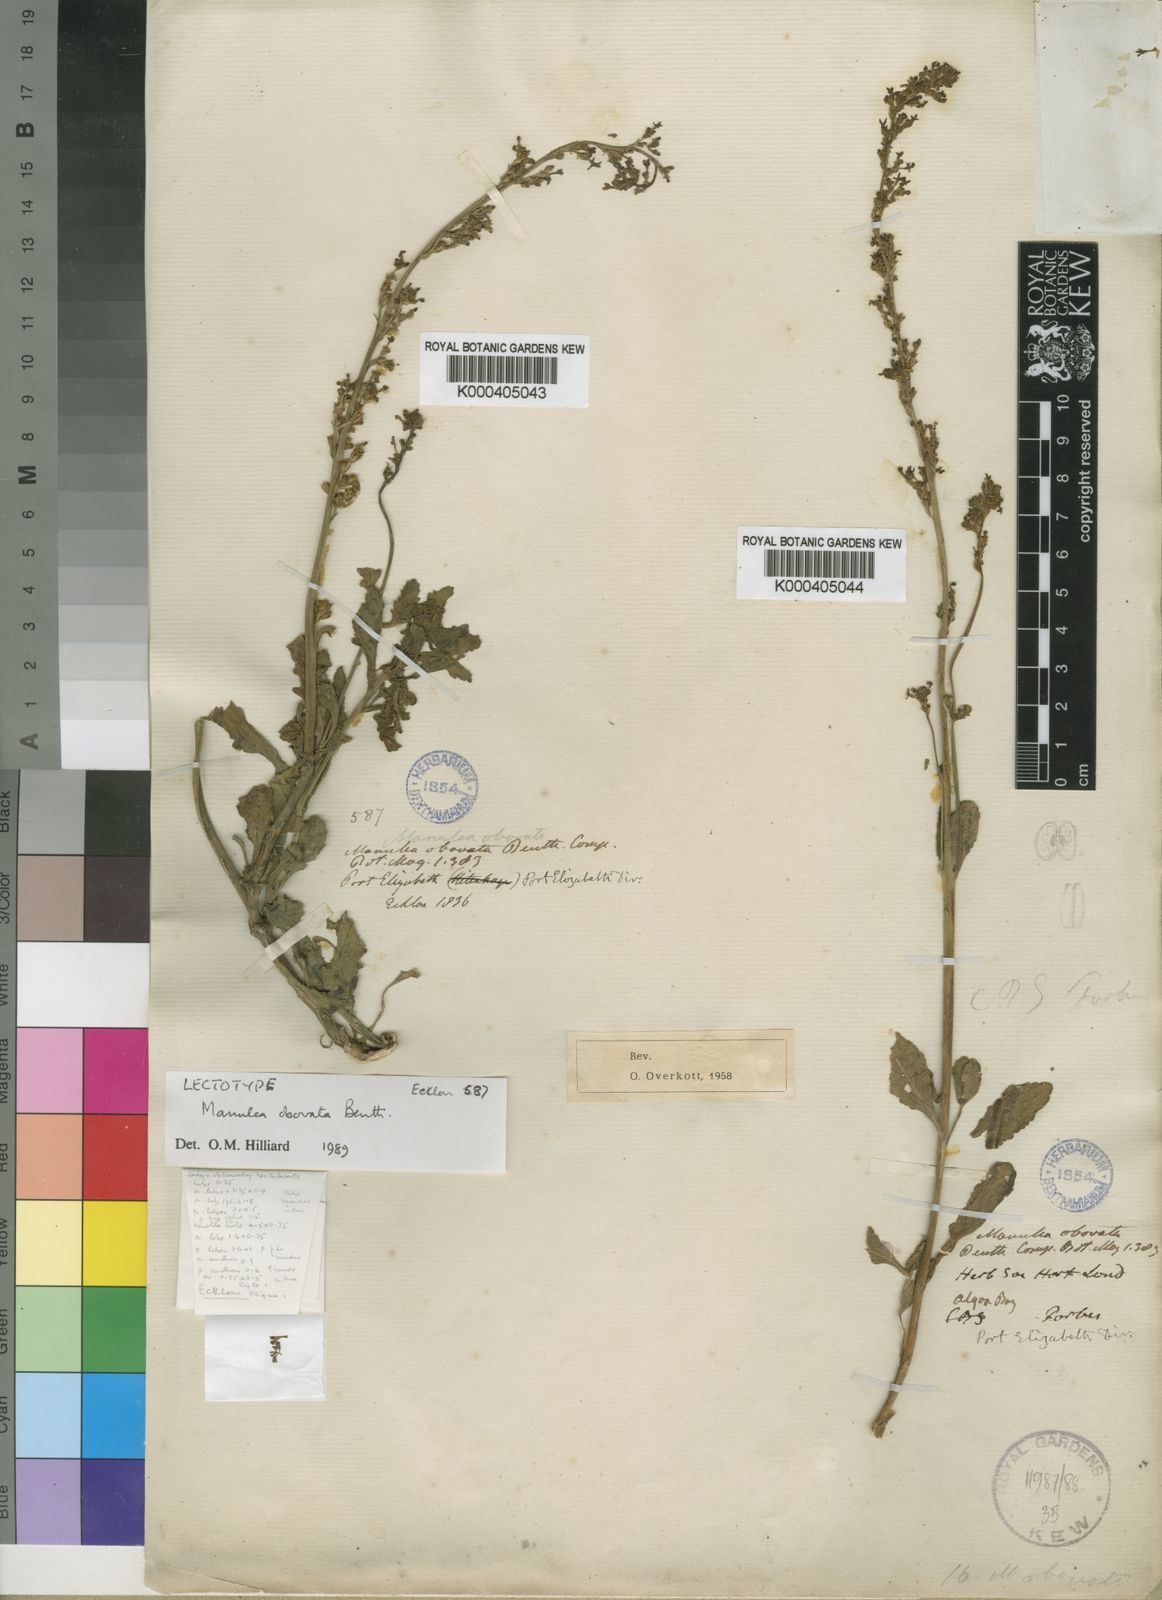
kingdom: Plantae
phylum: Tracheophyta
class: Magnoliopsida
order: Lamiales
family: Scrophulariaceae
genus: Manulea
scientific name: Manulea obovata
